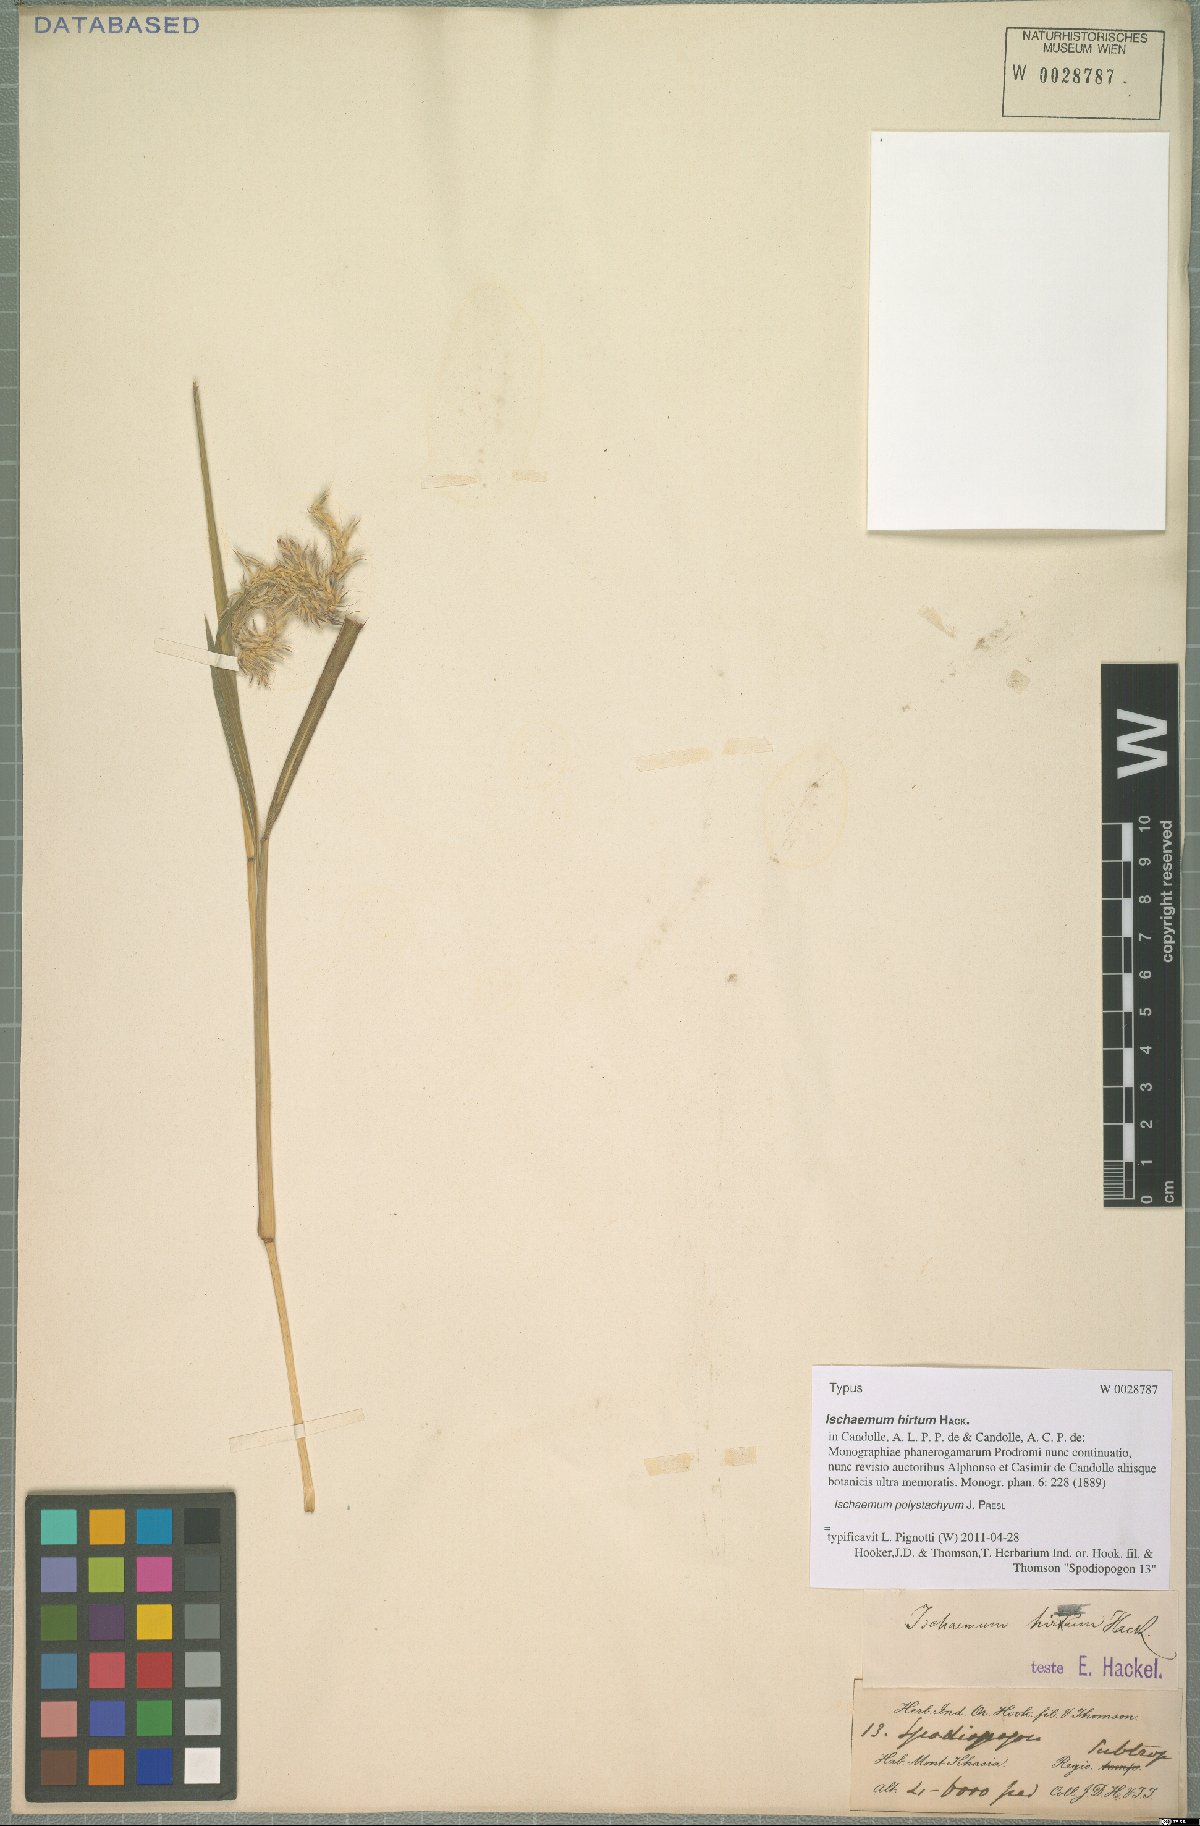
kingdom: Plantae
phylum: Tracheophyta
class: Liliopsida
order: Poales
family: Poaceae
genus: Ischaemum
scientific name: Ischaemum polystachyum
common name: Paddle grass
